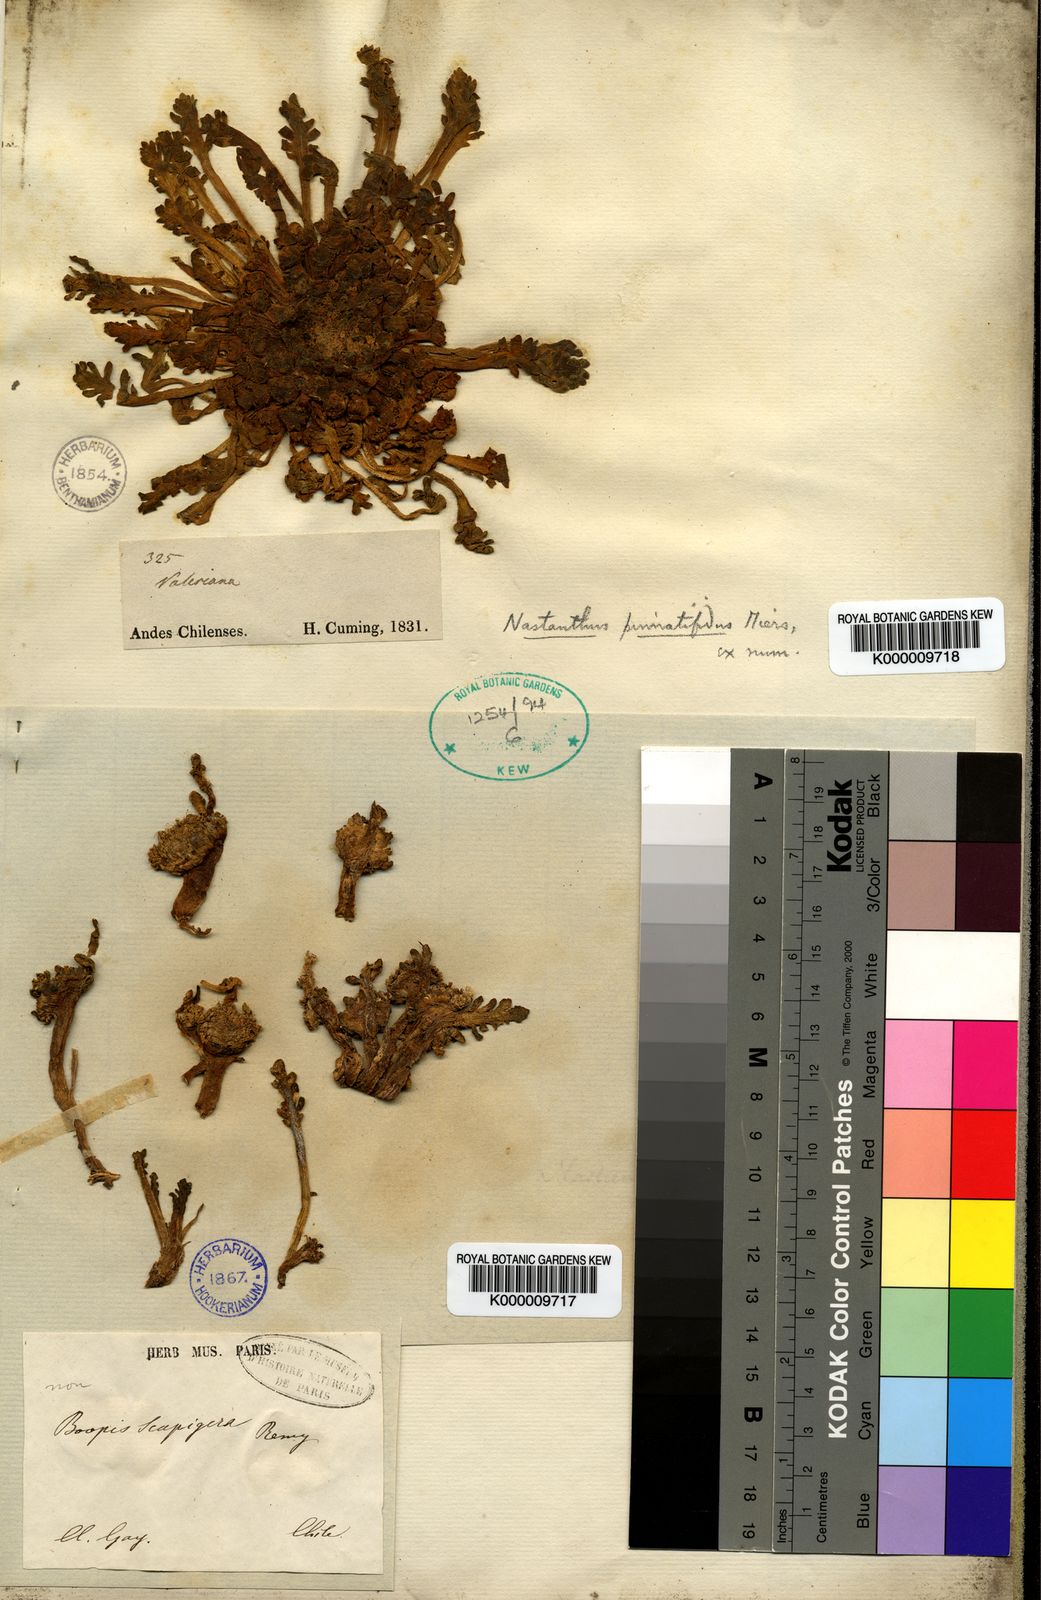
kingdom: Plantae
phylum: Tracheophyta
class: Magnoliopsida
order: Asterales
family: Calyceraceae
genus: Boopis
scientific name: Boopis
